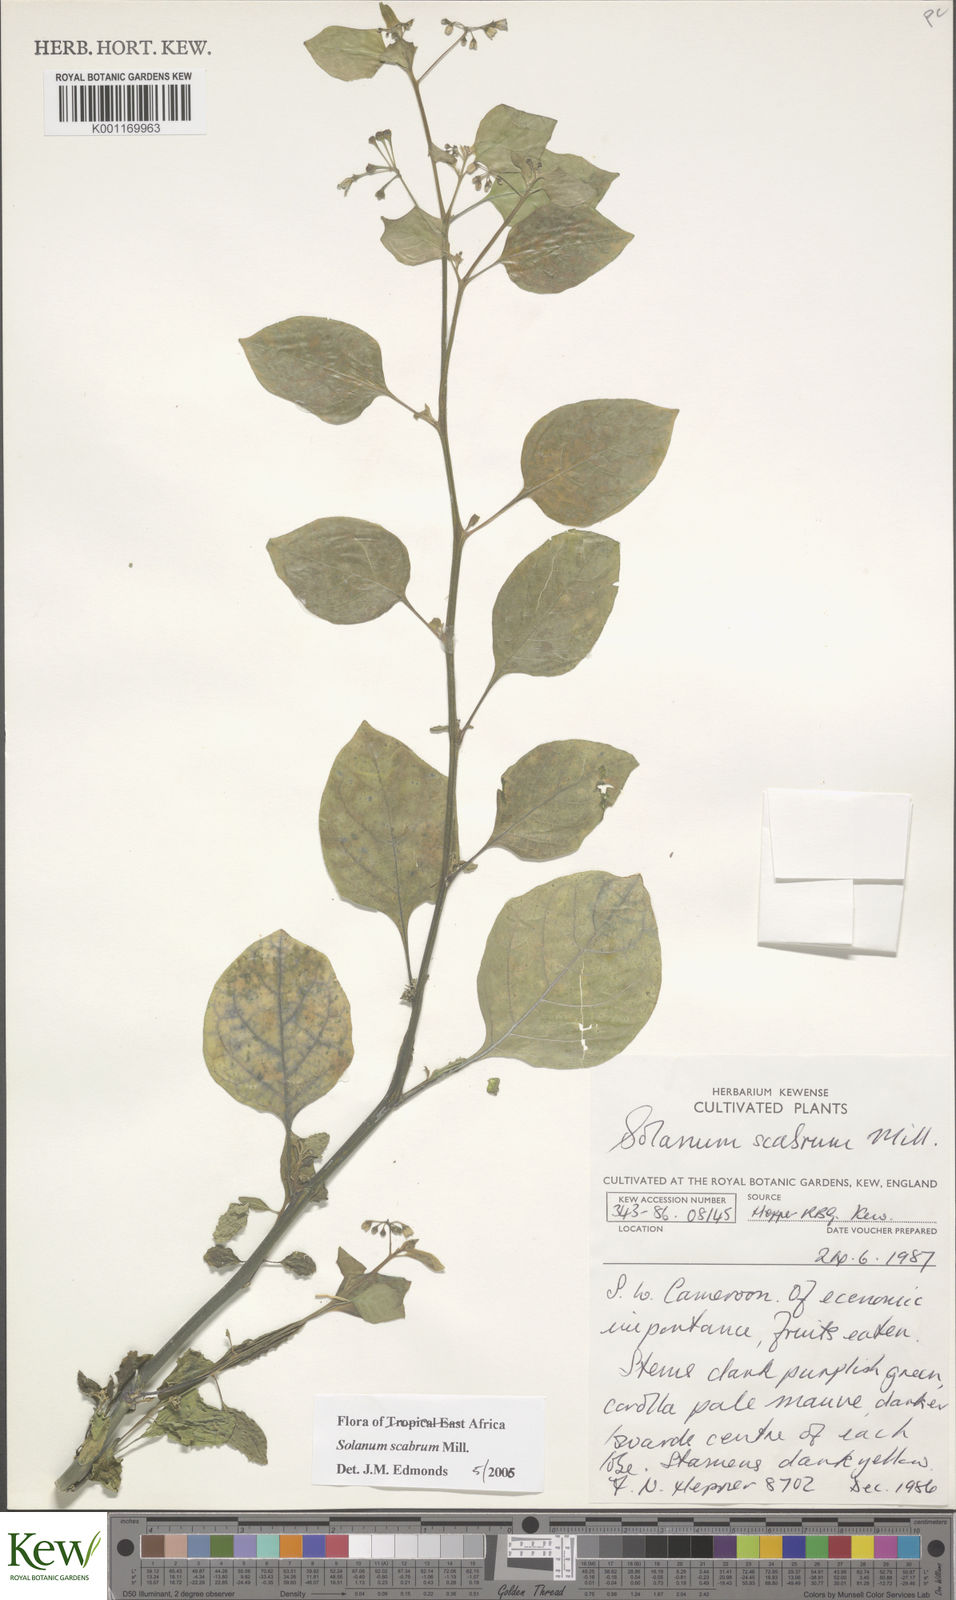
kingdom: Plantae
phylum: Tracheophyta
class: Magnoliopsida
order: Solanales
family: Solanaceae
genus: Solanum
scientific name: Solanum scabrum
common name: Garden-huckleberry
